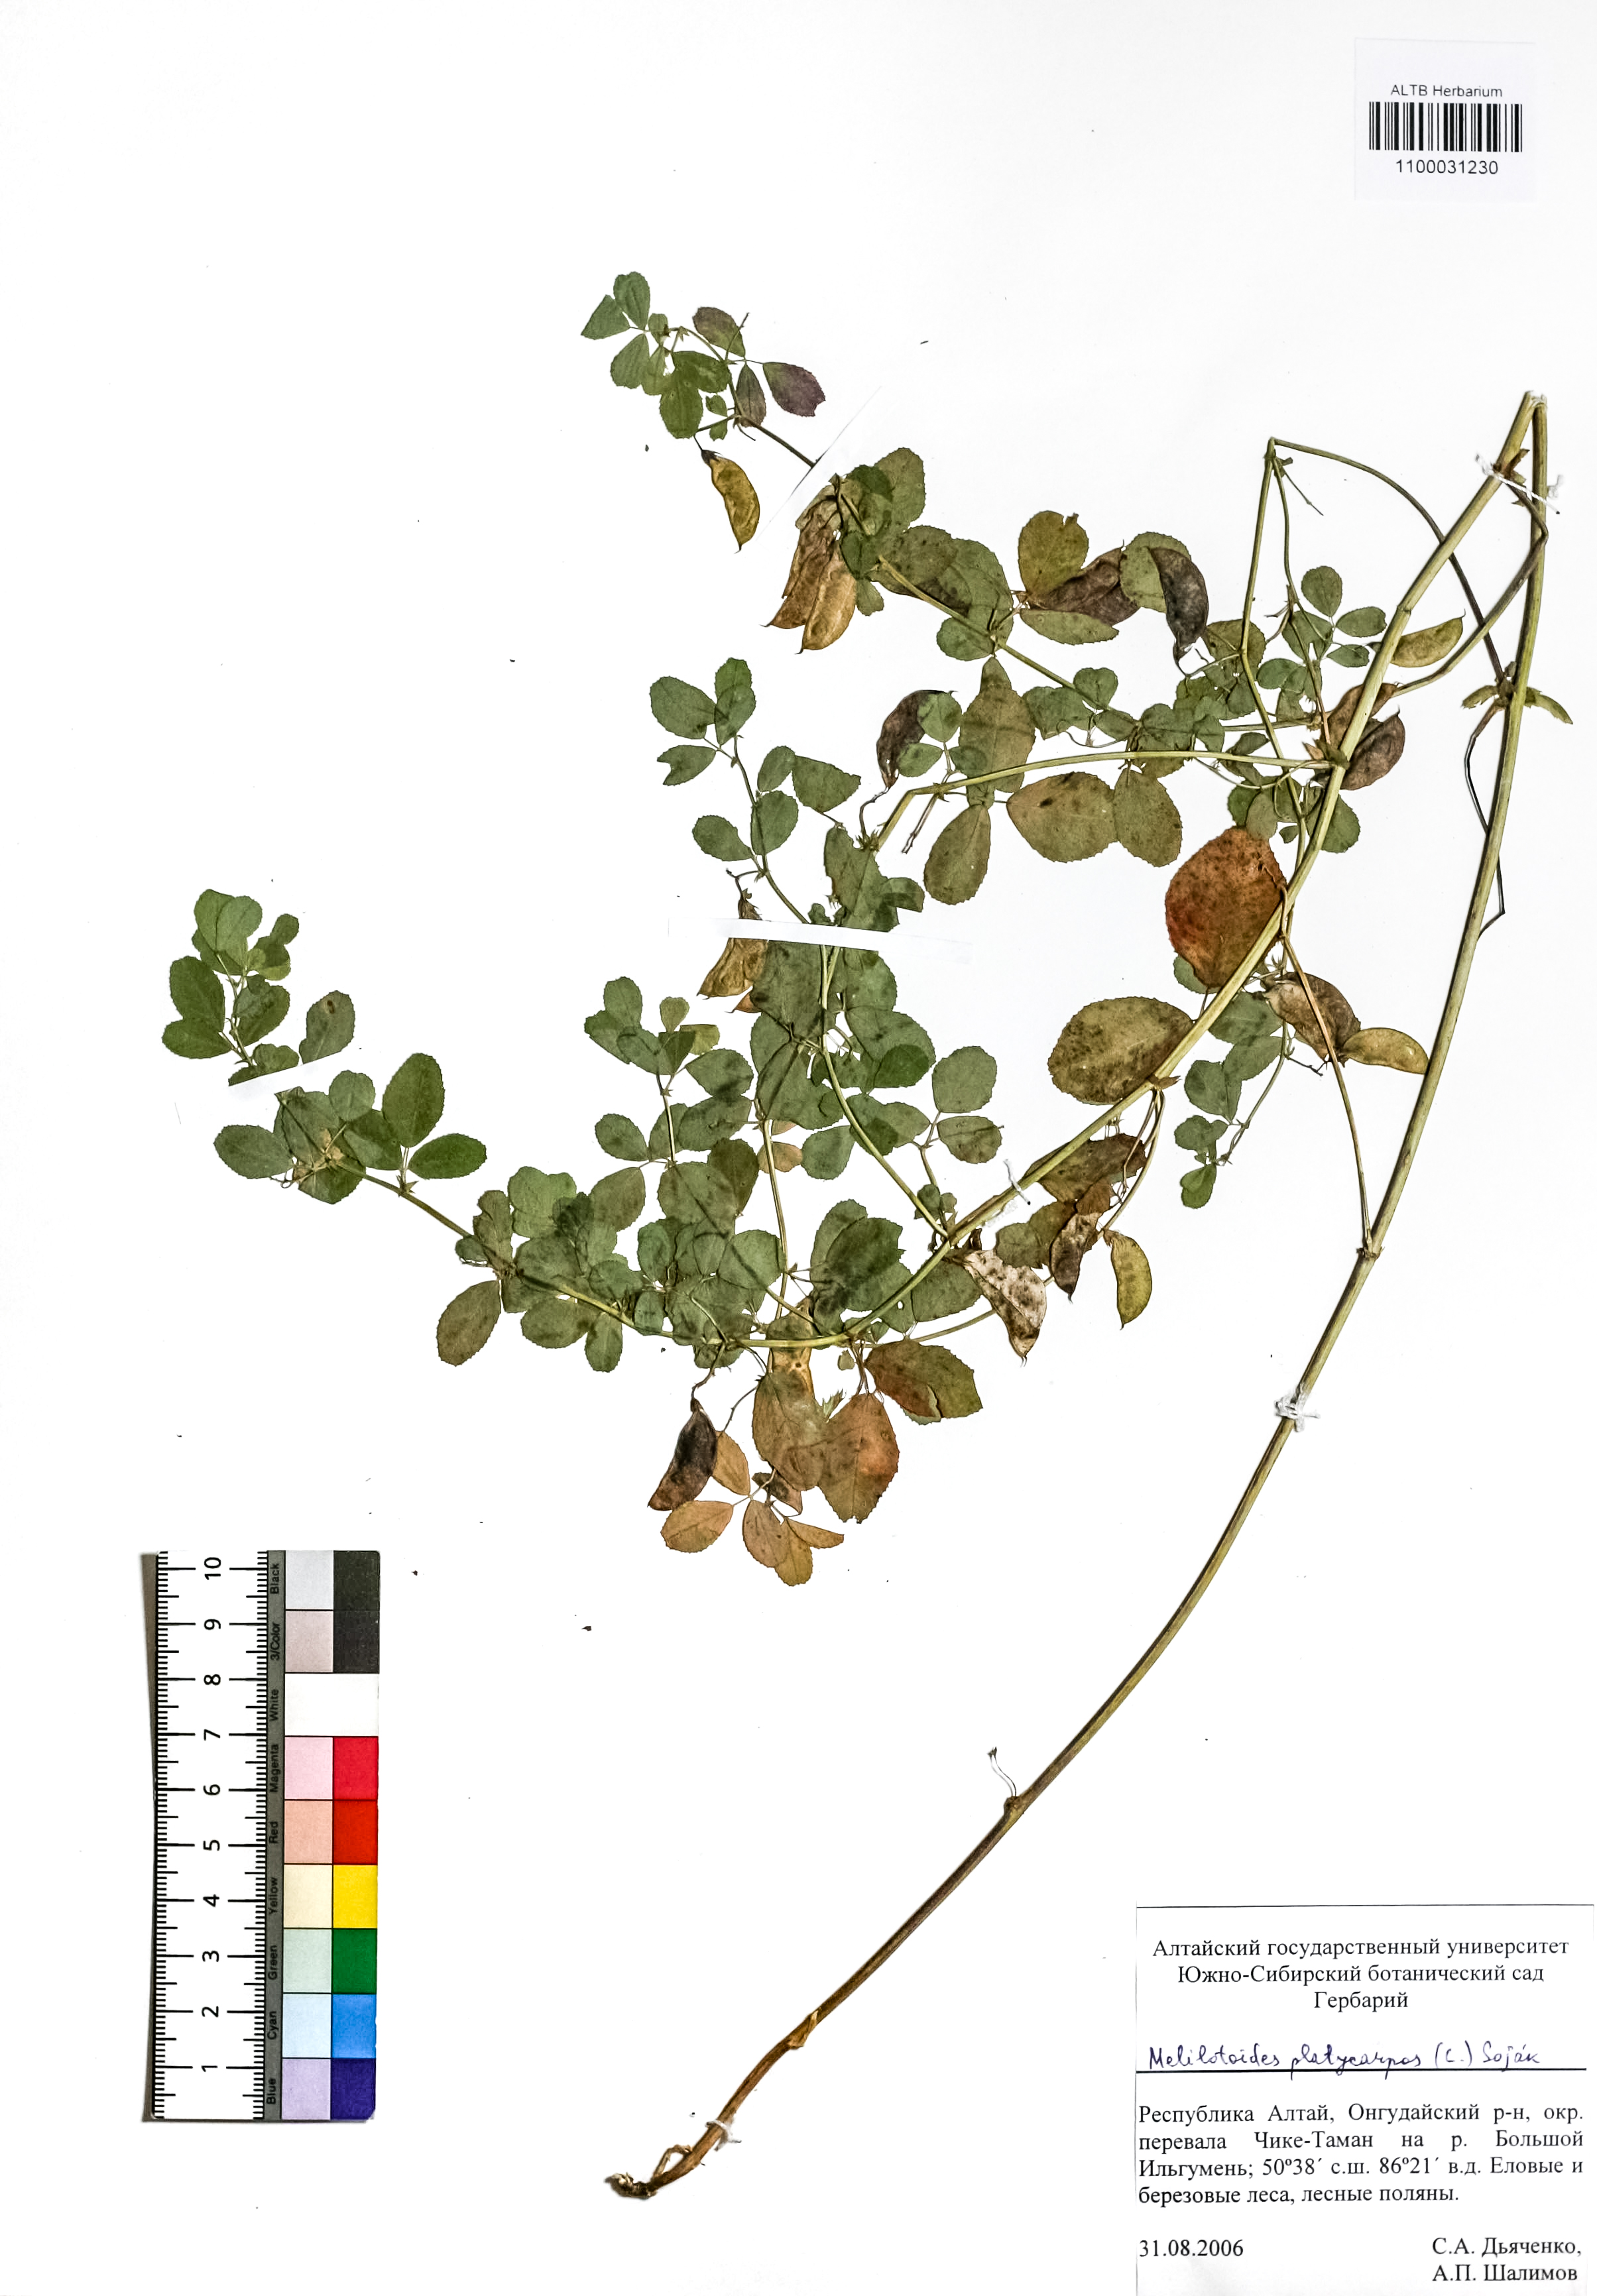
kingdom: Plantae
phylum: Tracheophyta
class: Magnoliopsida
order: Fabales
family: Fabaceae
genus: Medicago
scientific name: Medicago platycarpos
